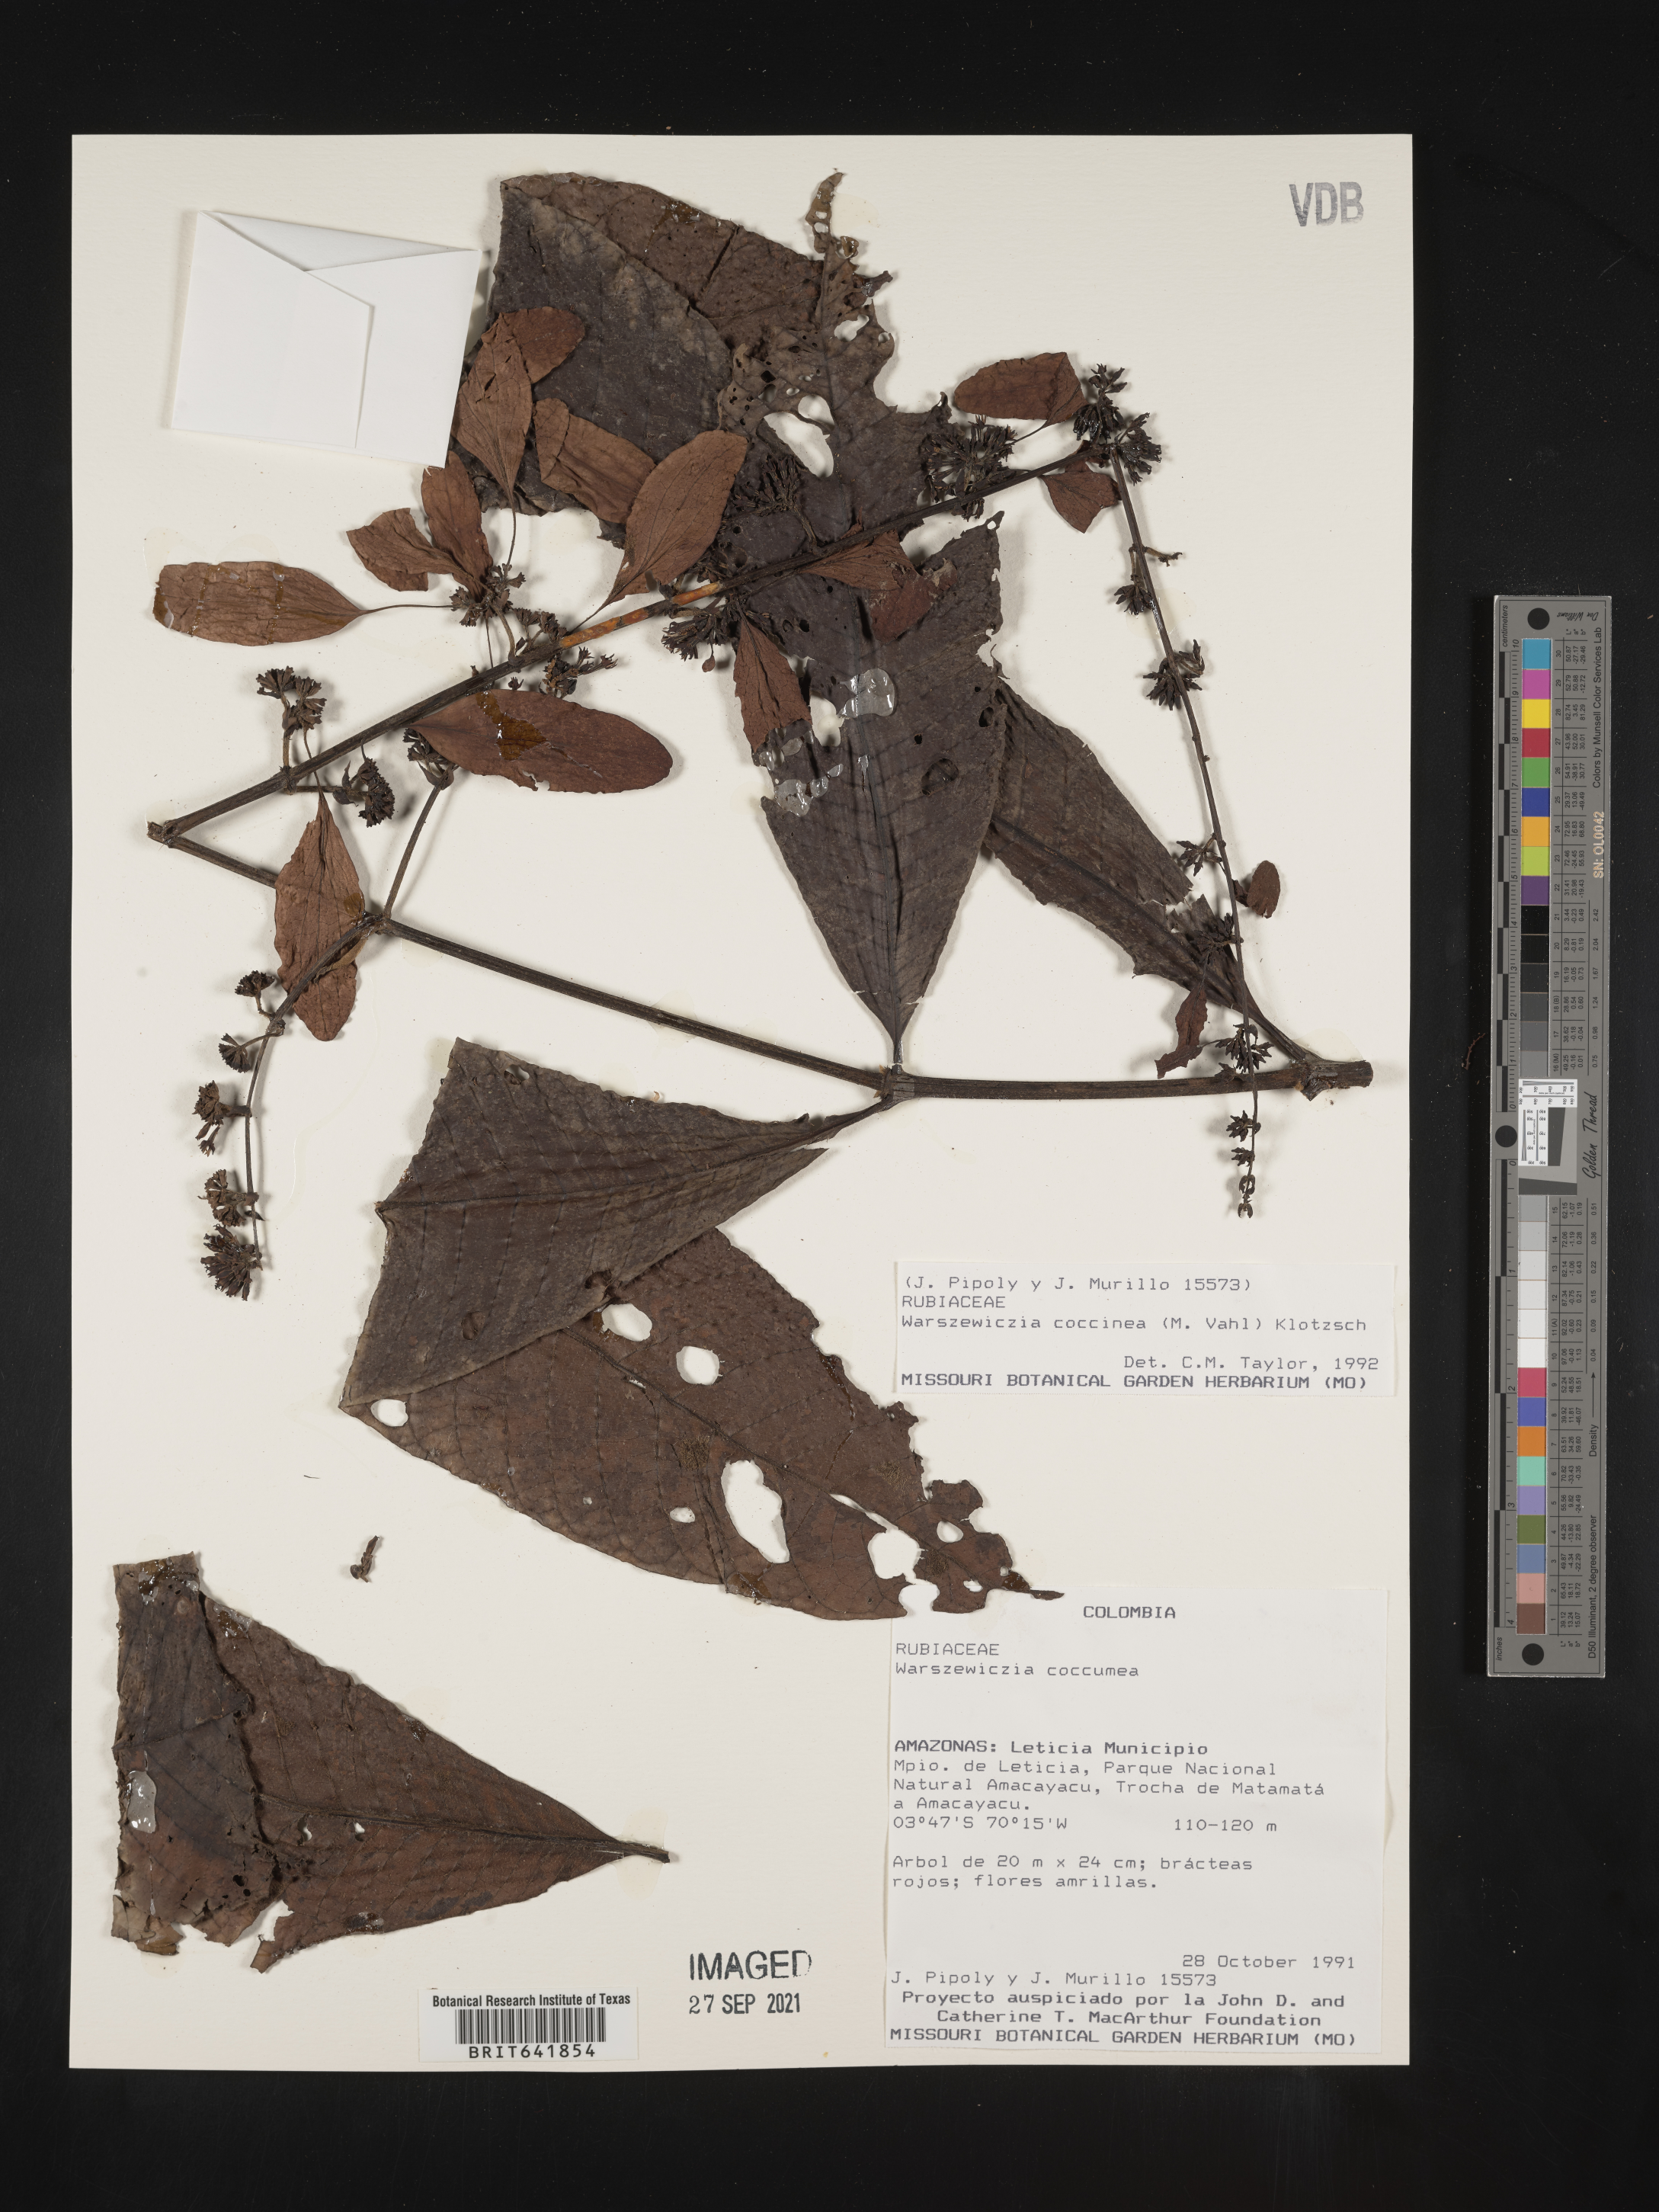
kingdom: Plantae
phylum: Tracheophyta
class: Magnoliopsida
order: Gentianales
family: Rubiaceae
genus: Warszewiczia
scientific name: Warszewiczia
